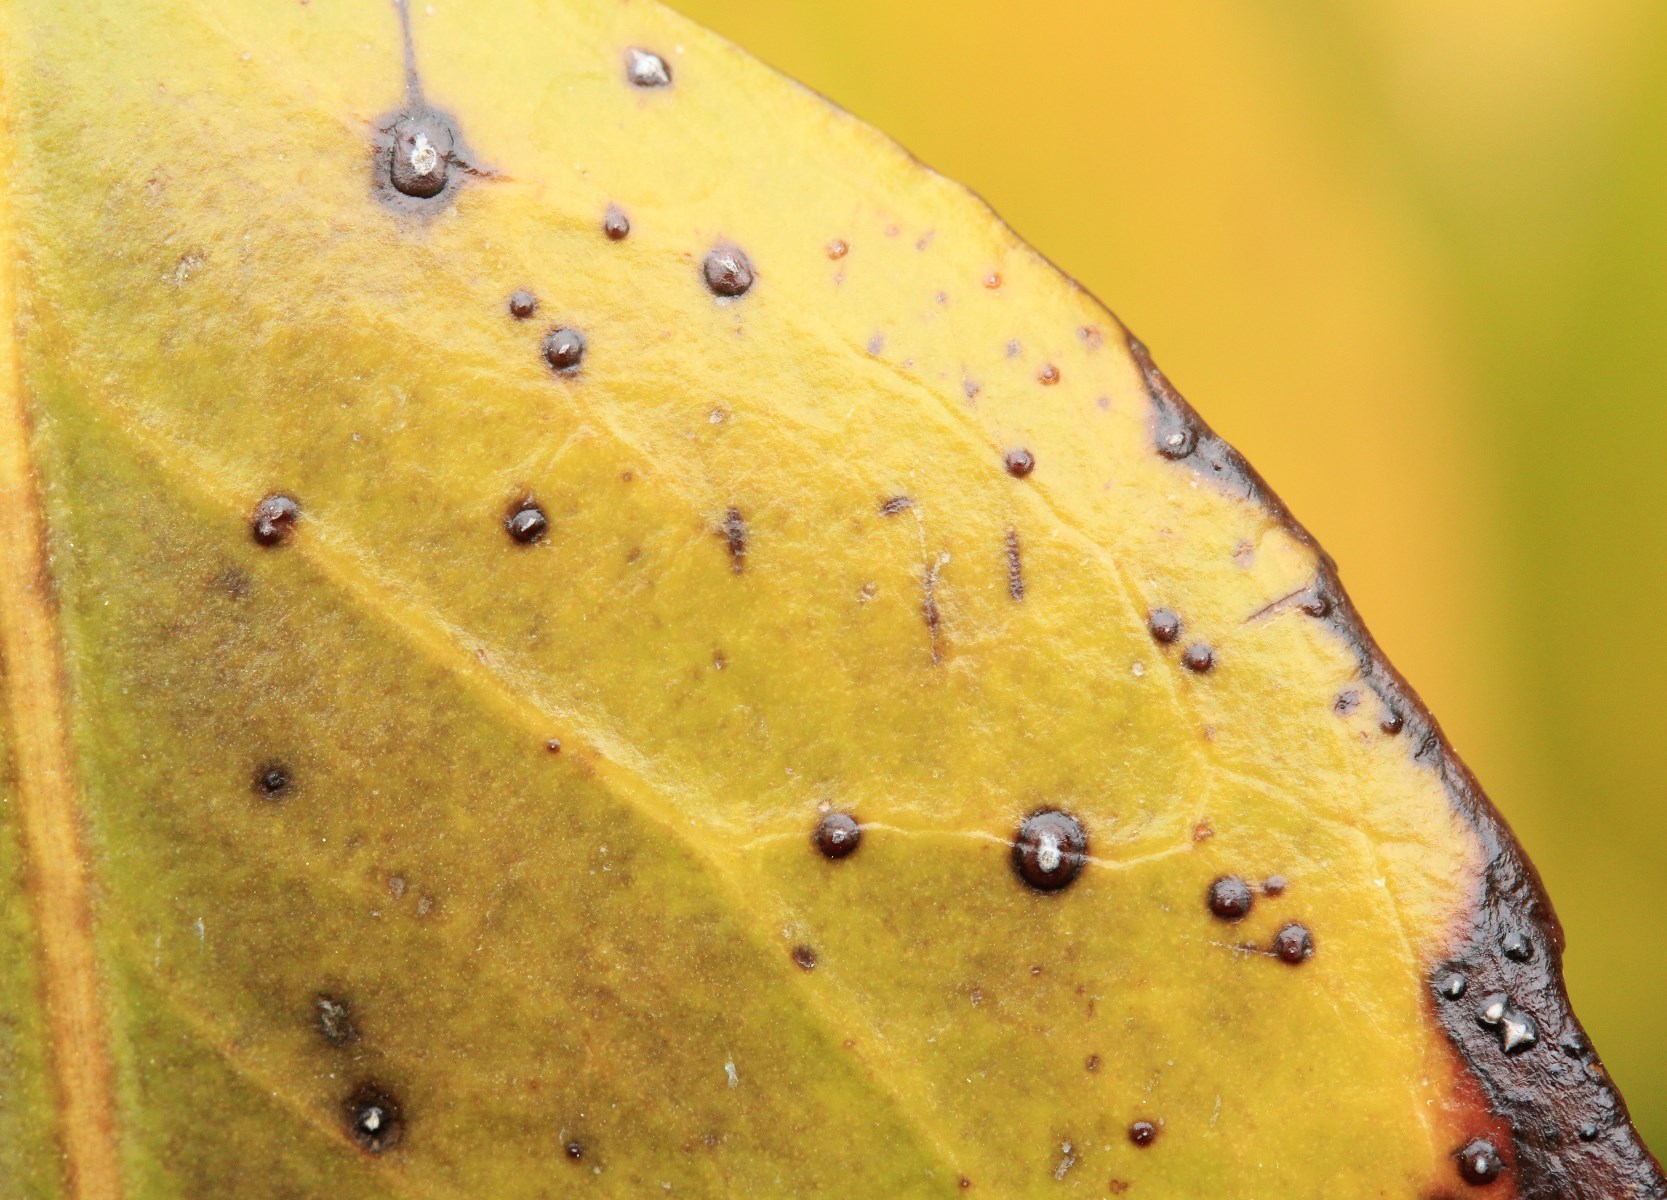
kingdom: Fungi
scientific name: Fungi
